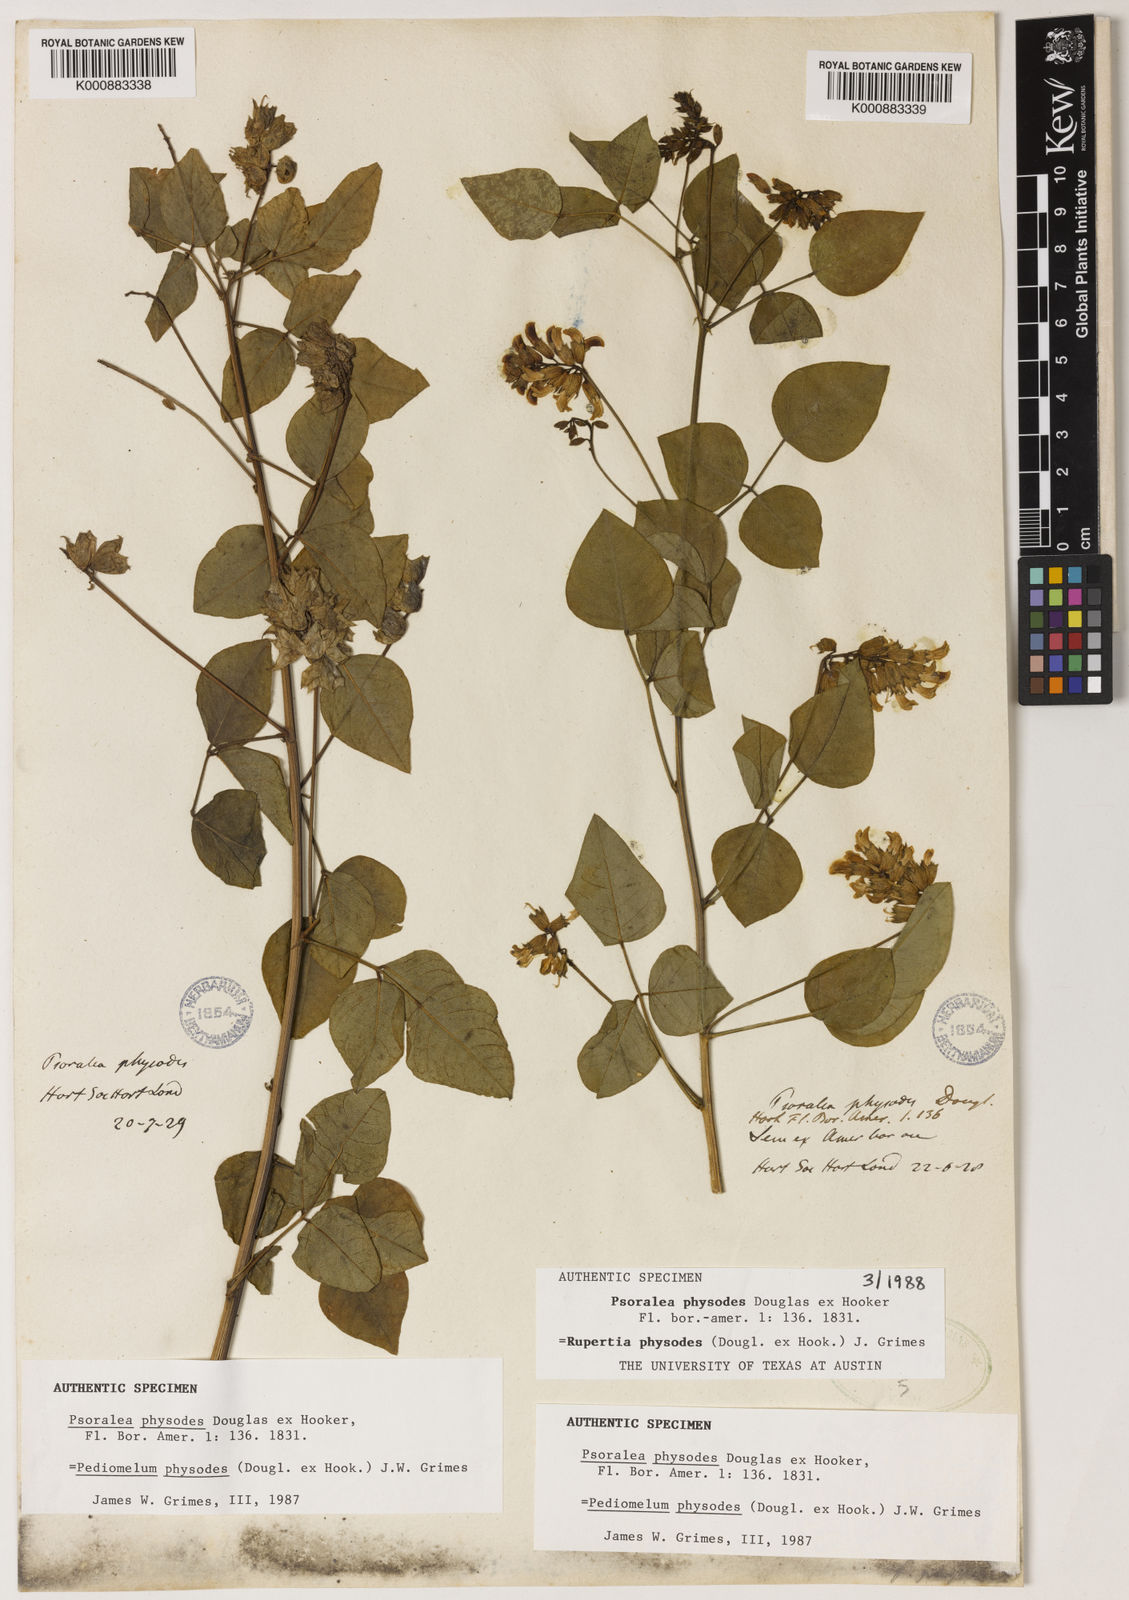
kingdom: Plantae
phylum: Tracheophyta
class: Magnoliopsida
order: Fabales
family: Fabaceae
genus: Rupertia
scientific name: Rupertia physodes
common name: California-tea
